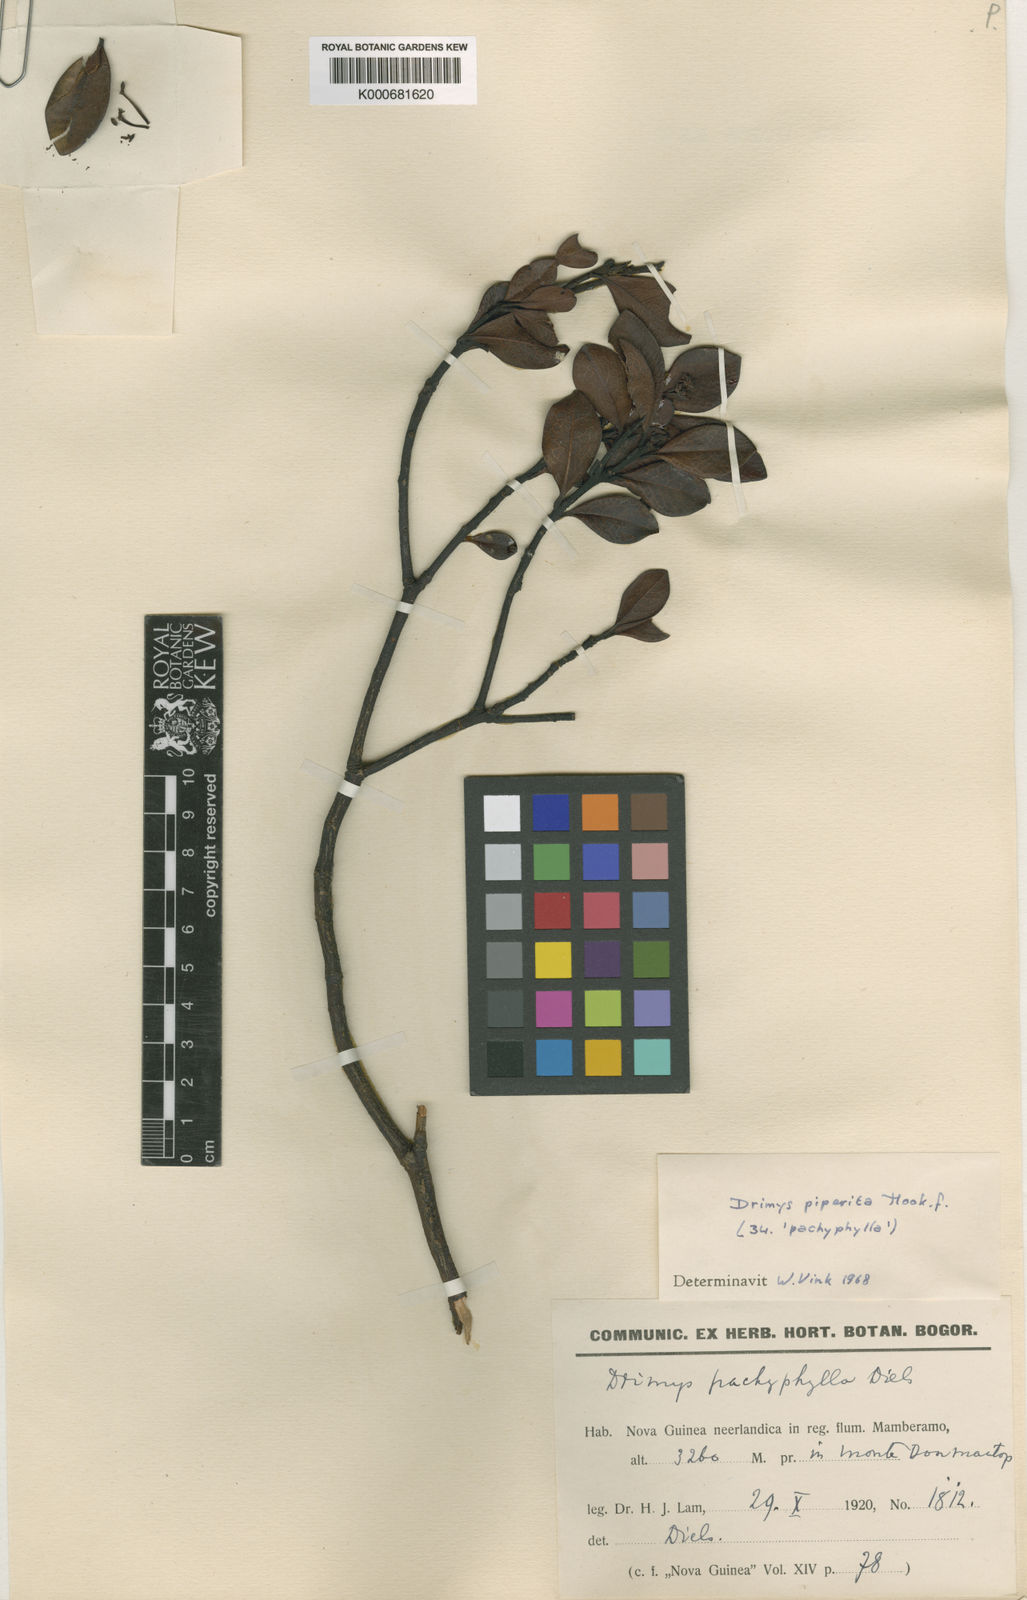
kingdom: Plantae
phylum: Tracheophyta
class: Magnoliopsida
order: Canellales
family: Winteraceae
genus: Drimys
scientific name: Drimys piperita
